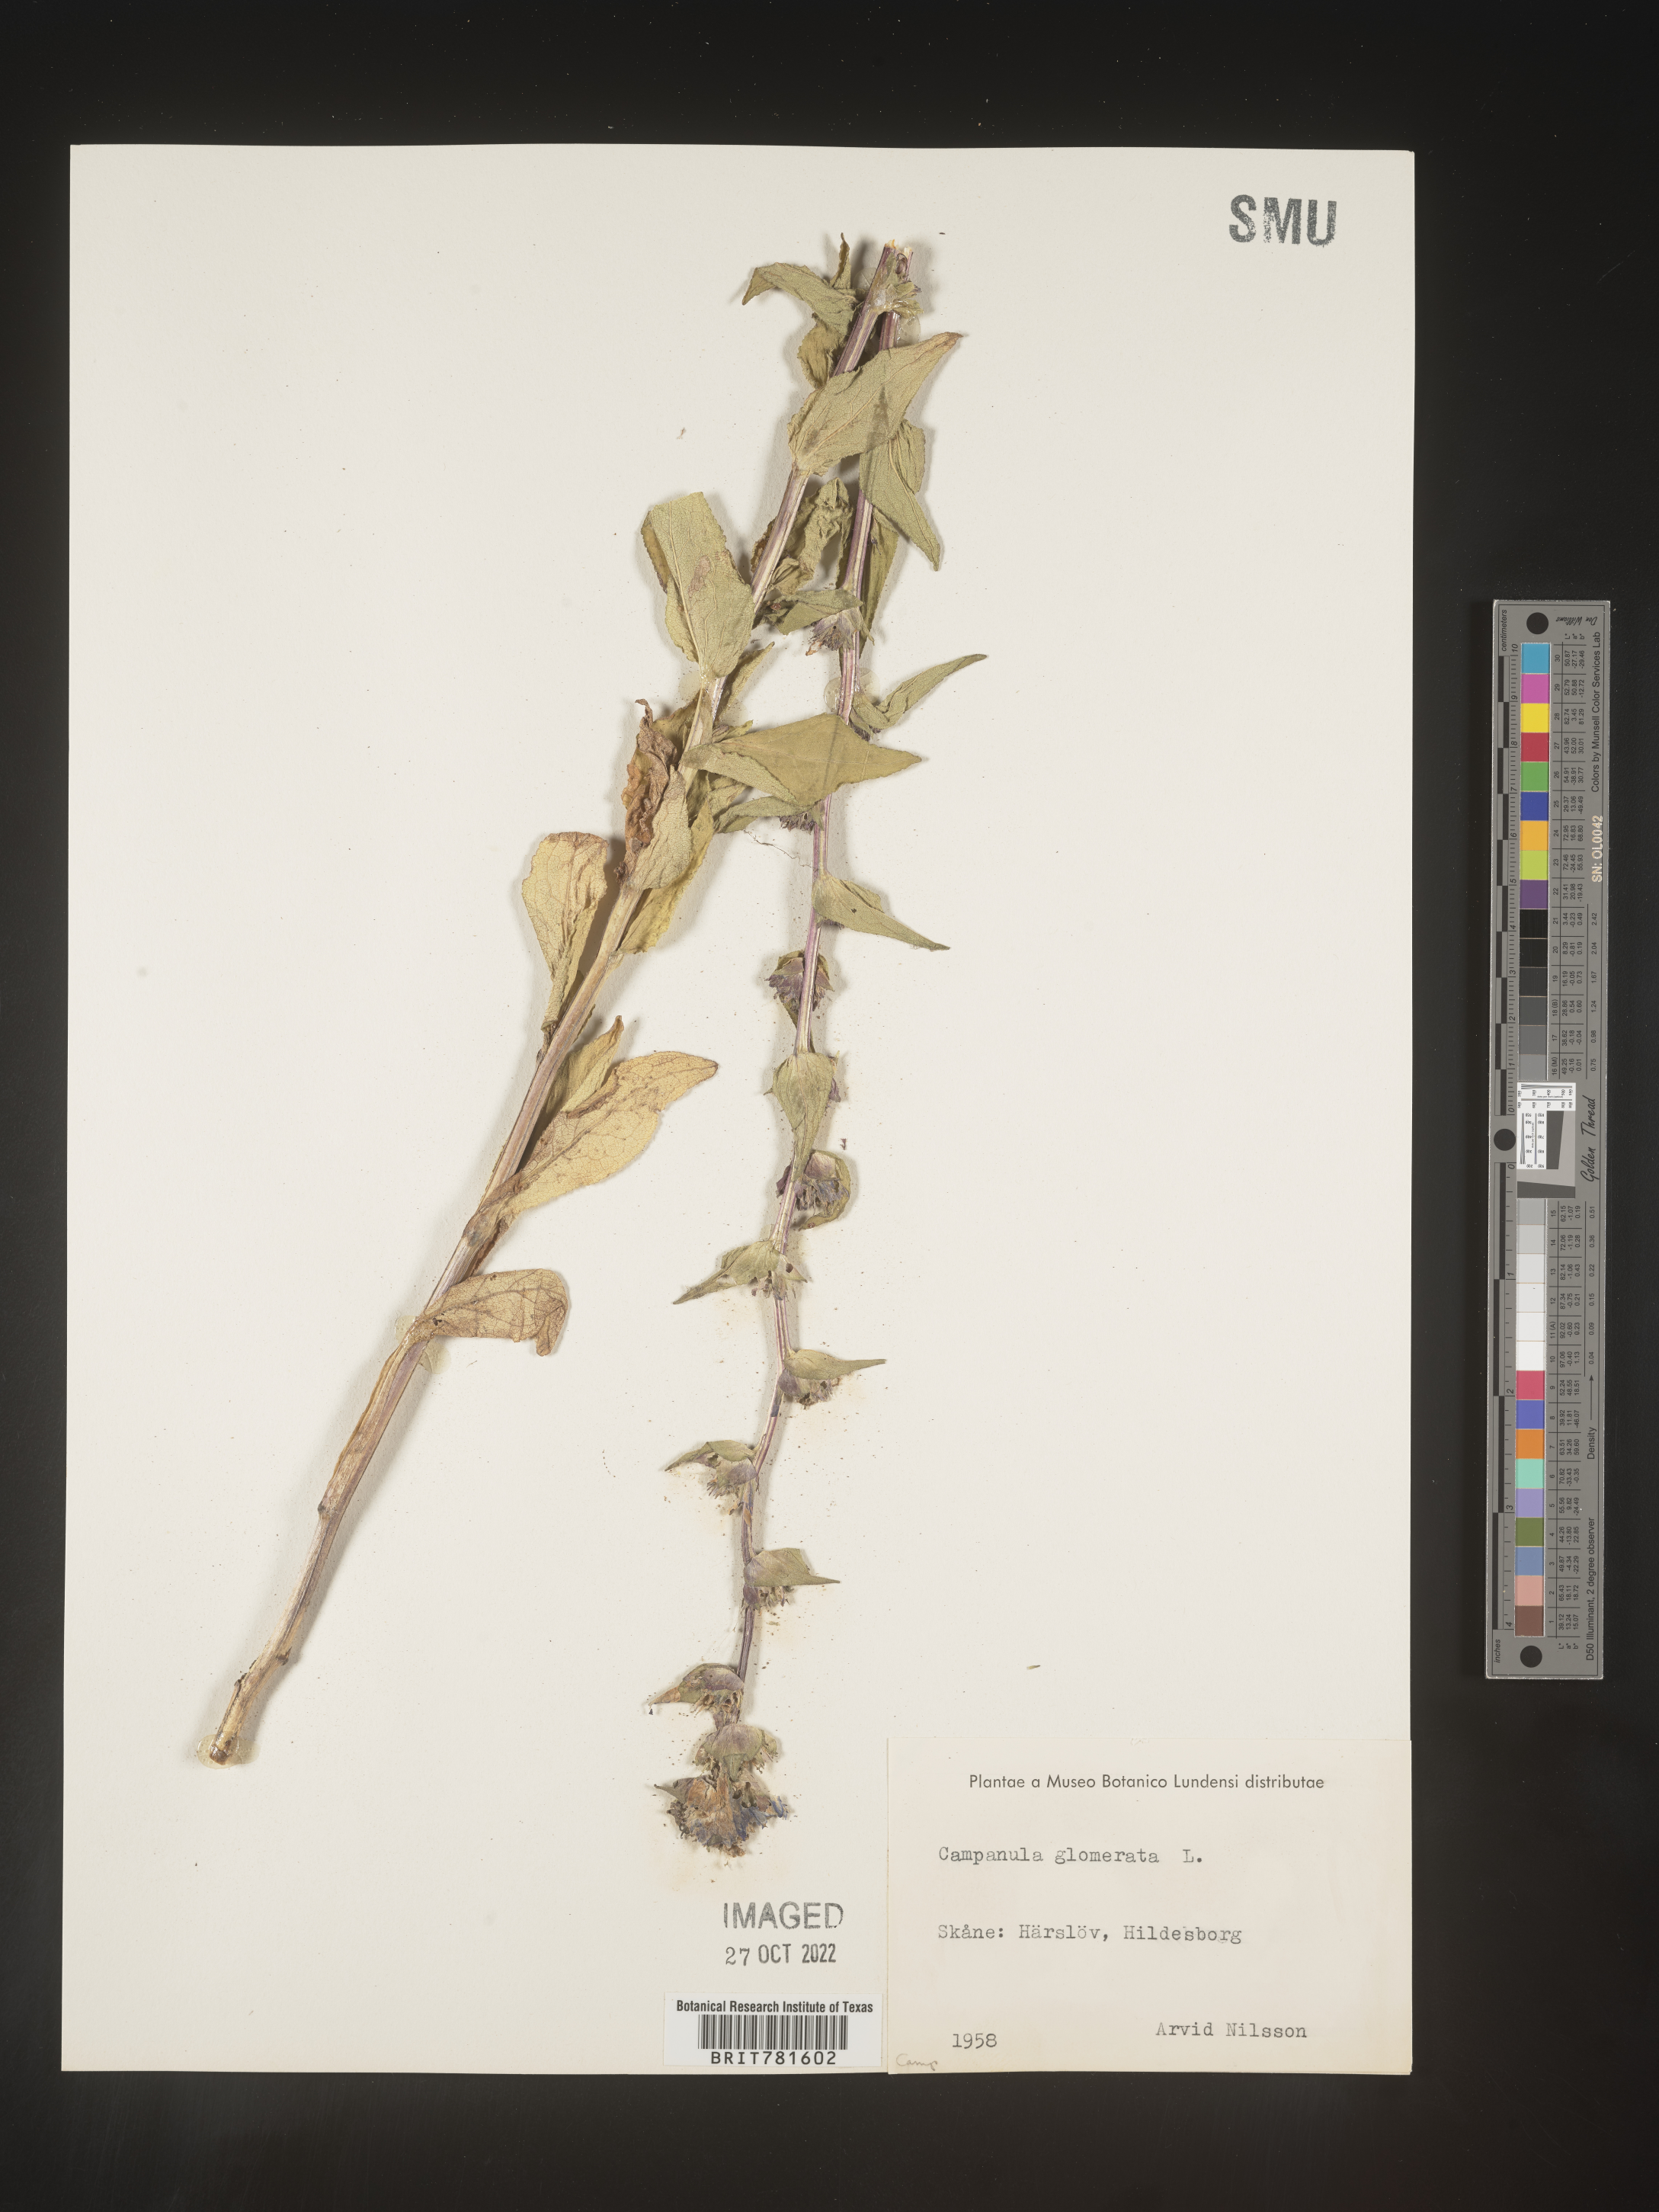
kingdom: Plantae
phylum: Tracheophyta
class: Magnoliopsida
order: Asterales
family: Campanulaceae
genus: Campanula
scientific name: Campanula
